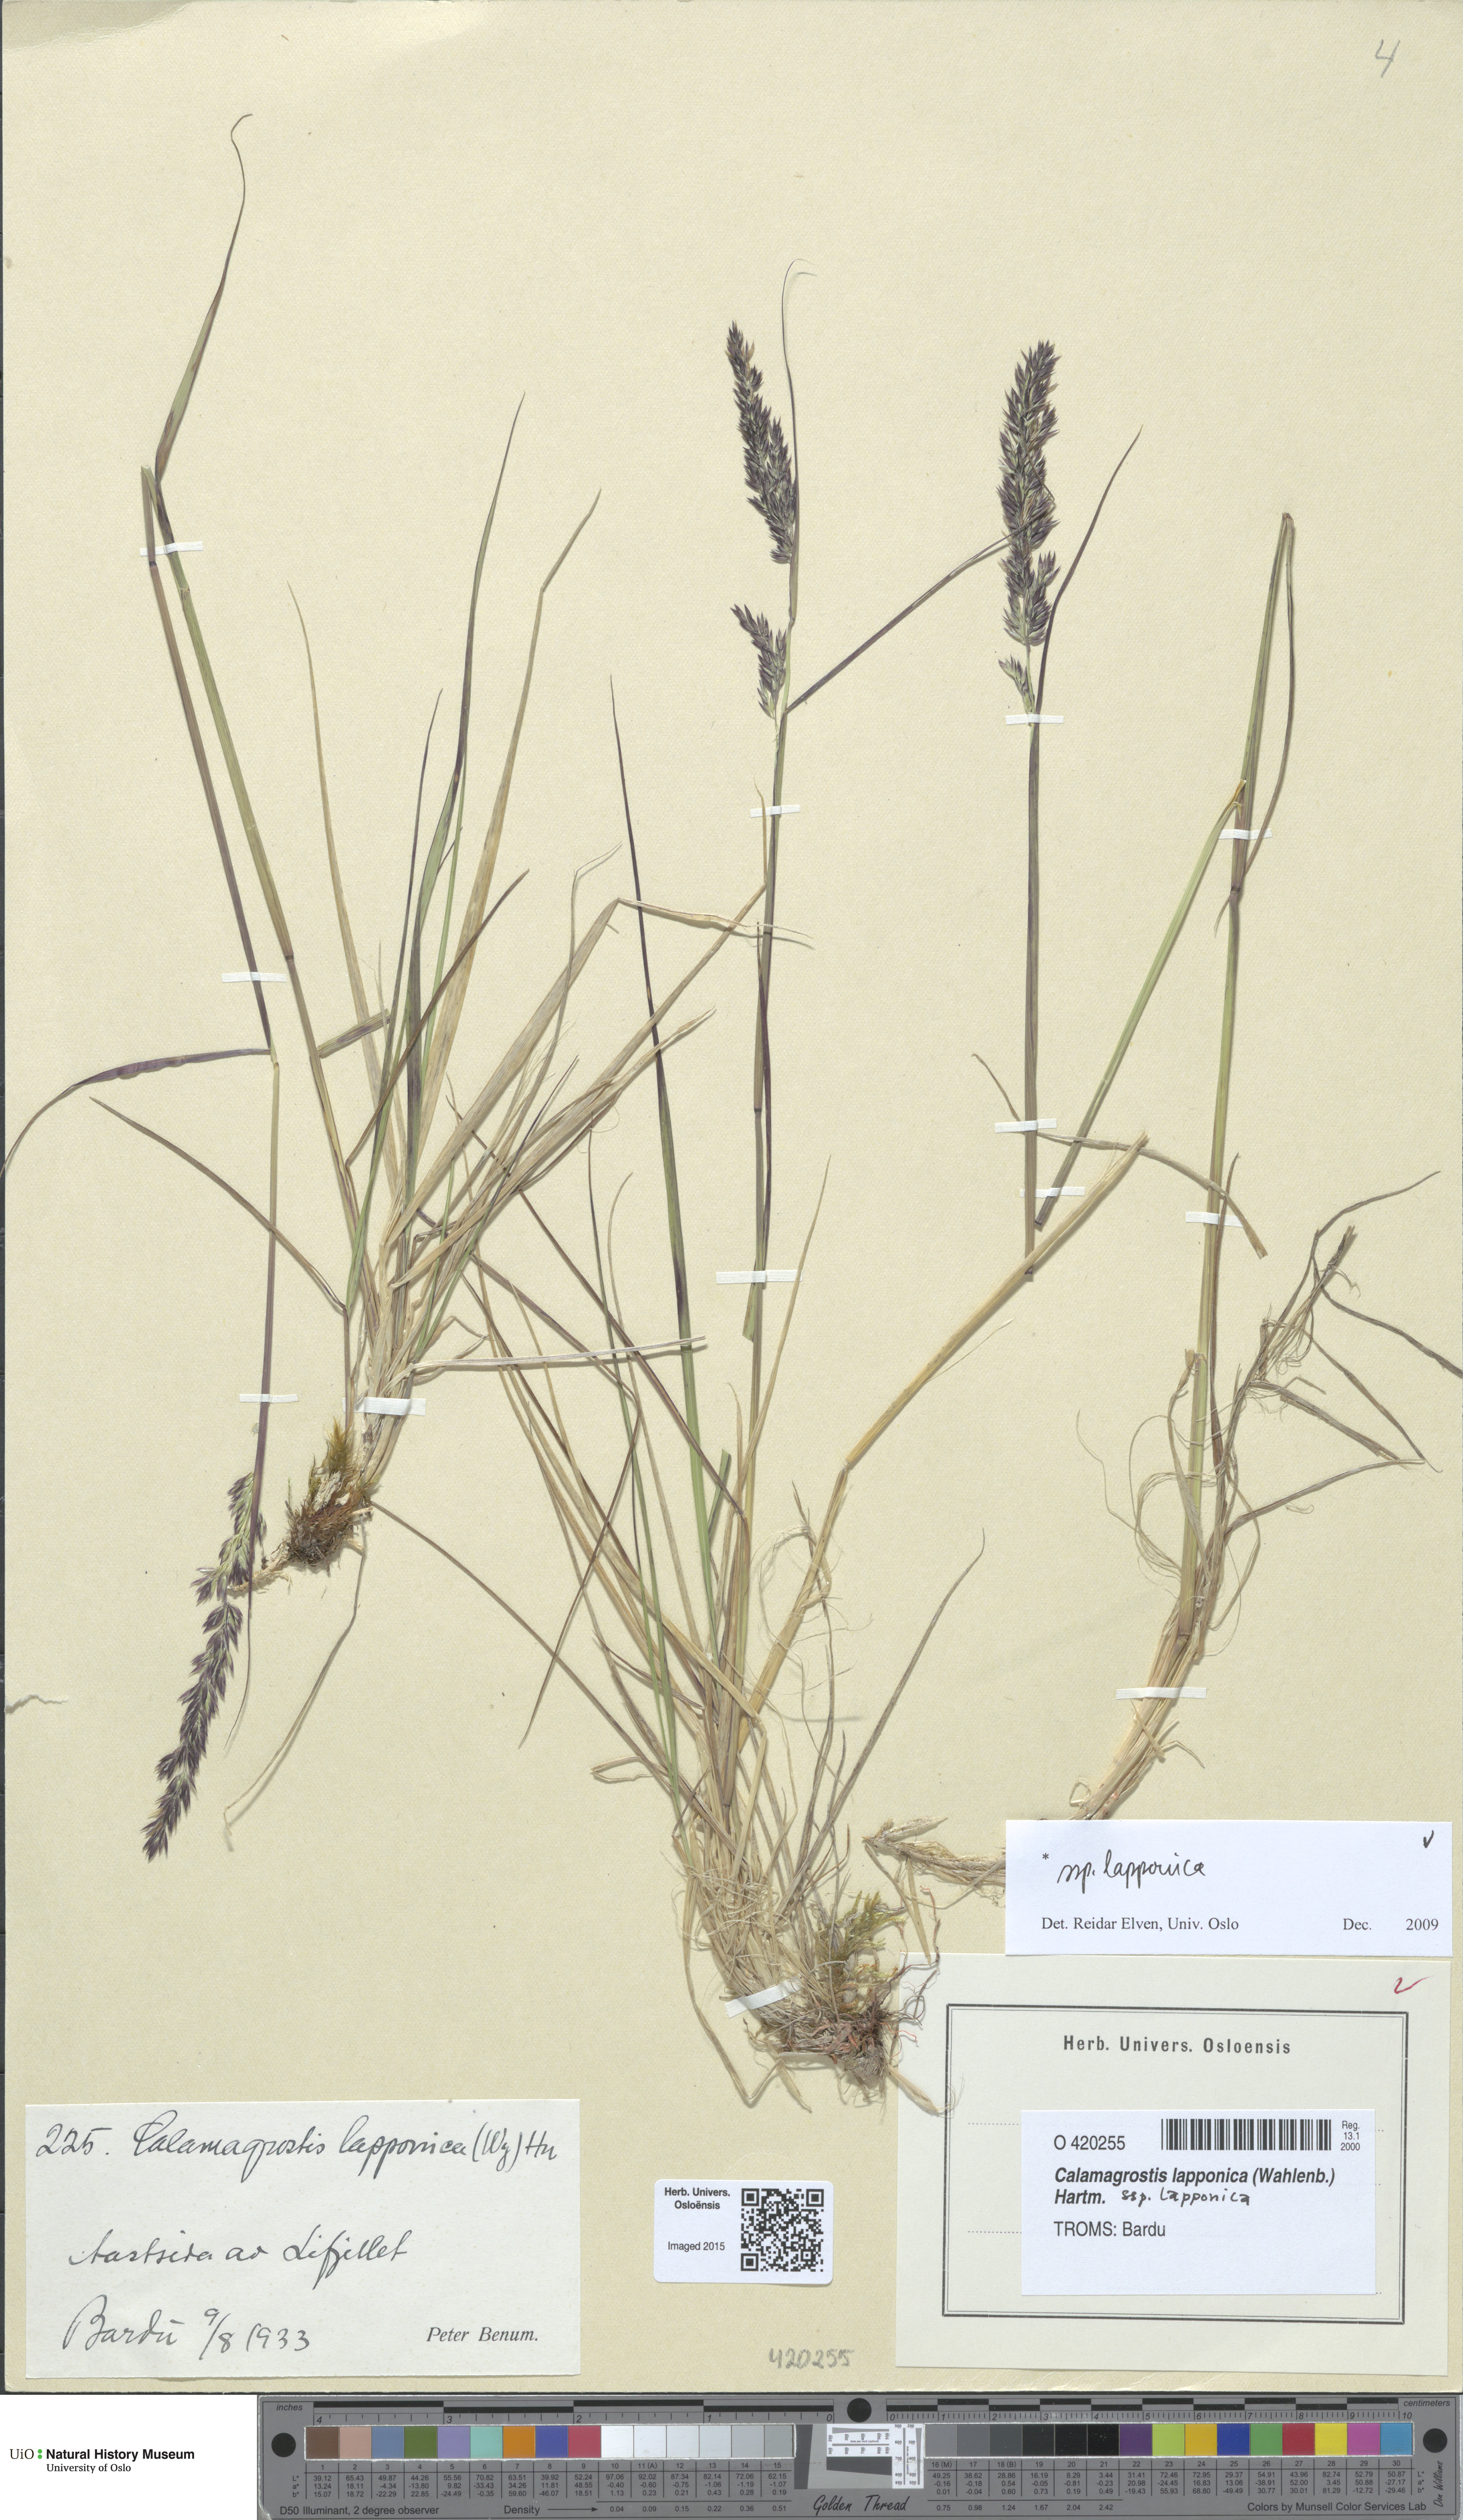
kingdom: Plantae
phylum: Tracheophyta
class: Liliopsida
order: Poales
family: Poaceae
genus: Calamagrostis
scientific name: Calamagrostis lapponica
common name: Lapland reedgrass
